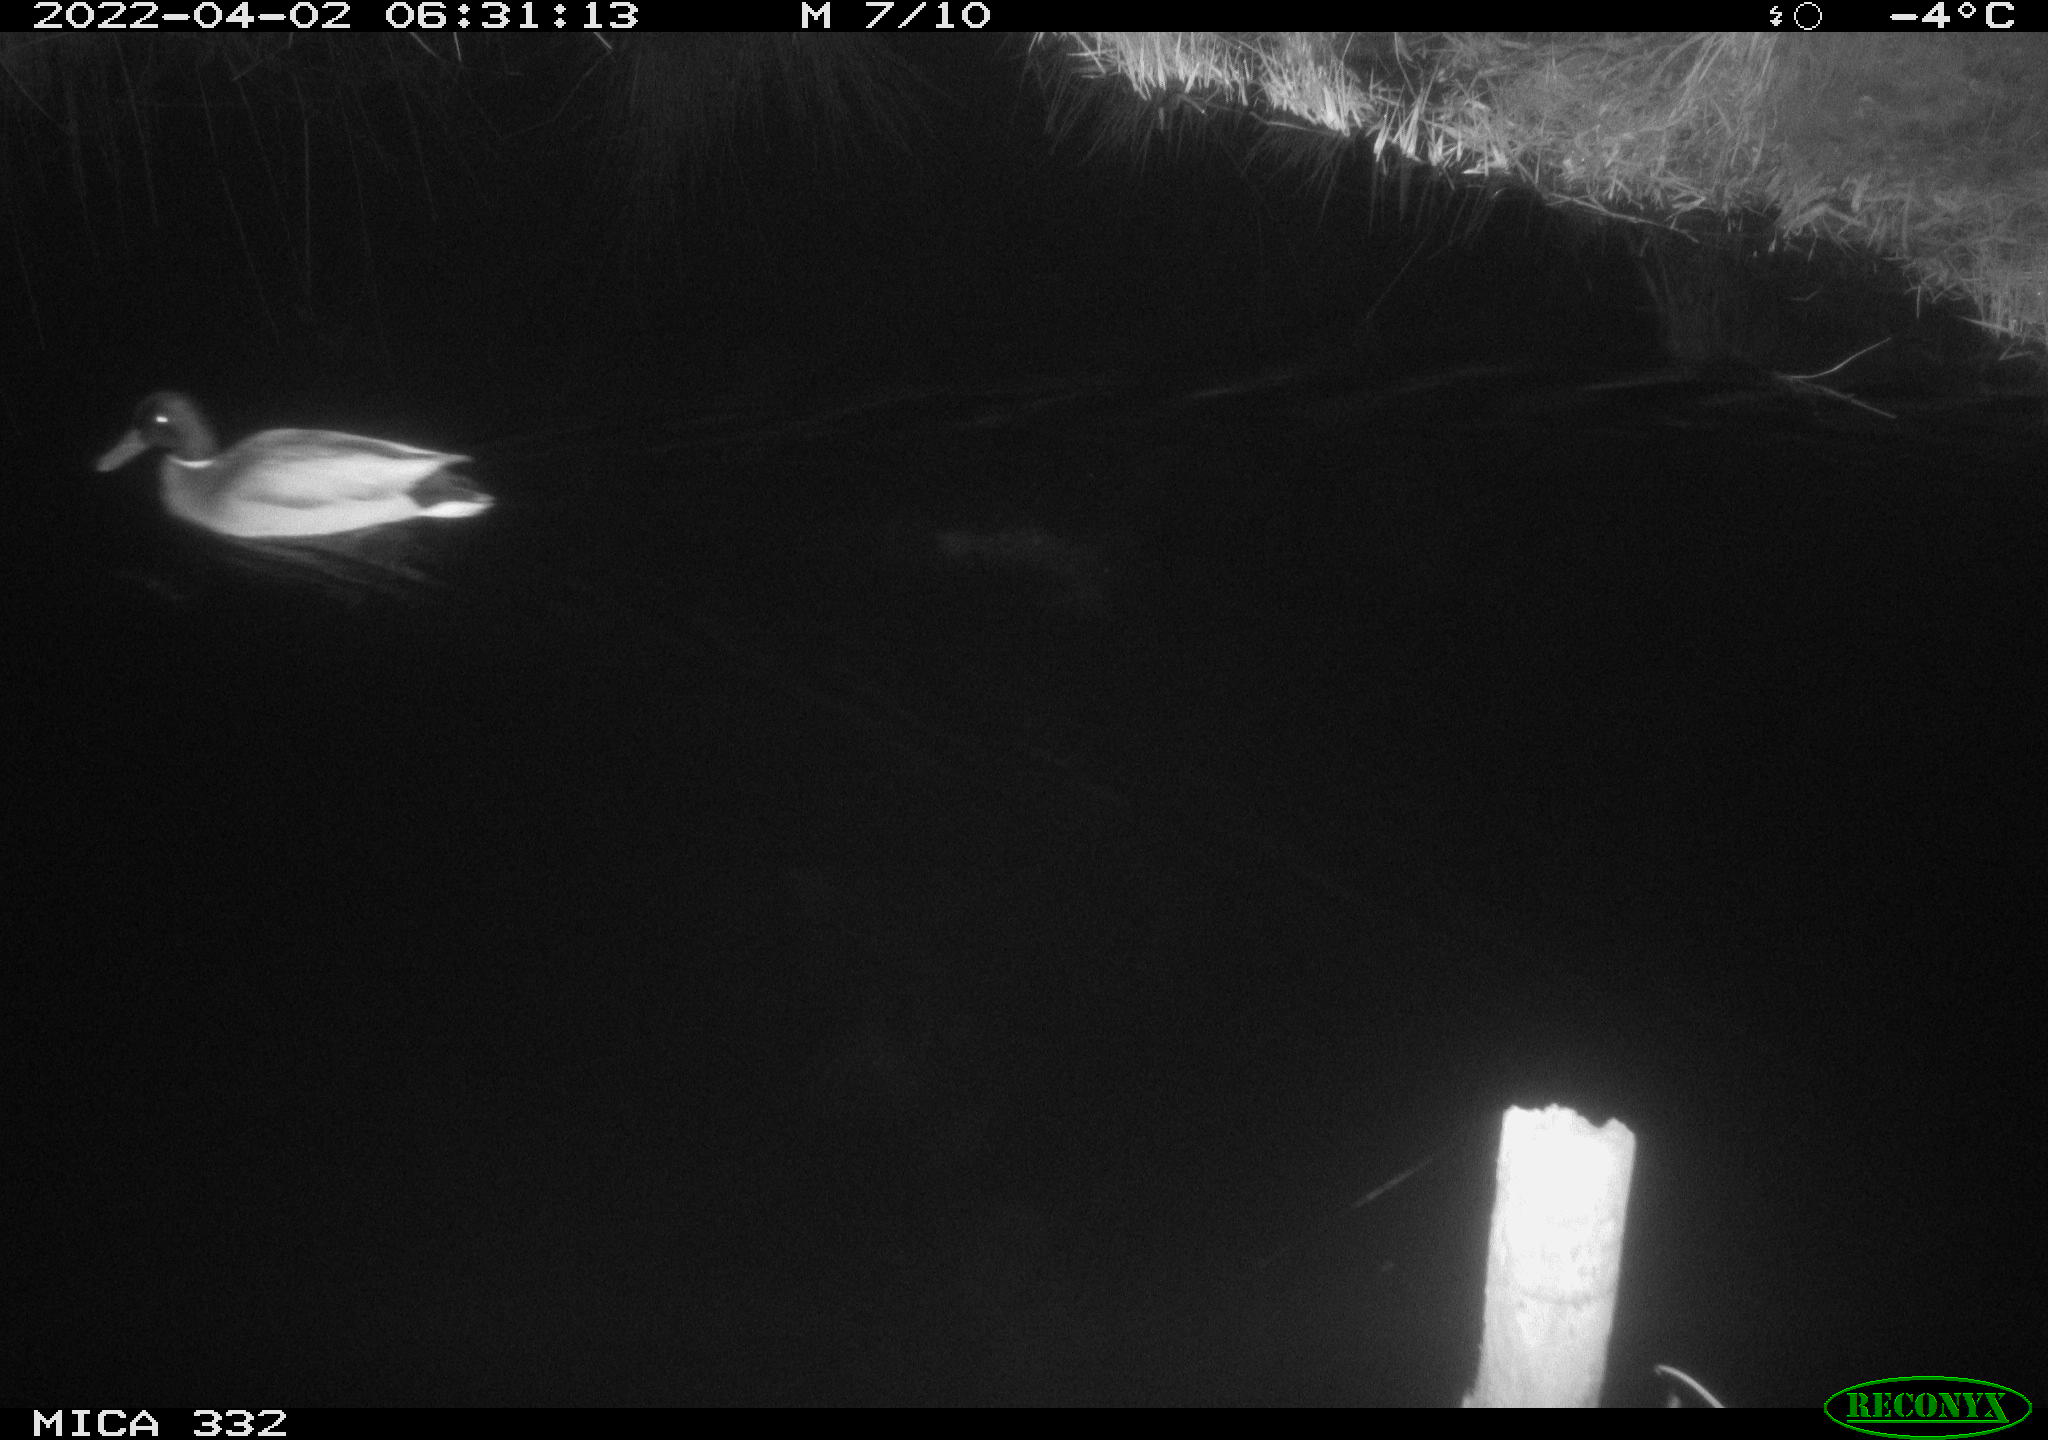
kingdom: Animalia
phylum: Chordata
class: Aves
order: Anseriformes
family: Anatidae
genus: Anas
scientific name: Anas platyrhynchos
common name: Mallard
